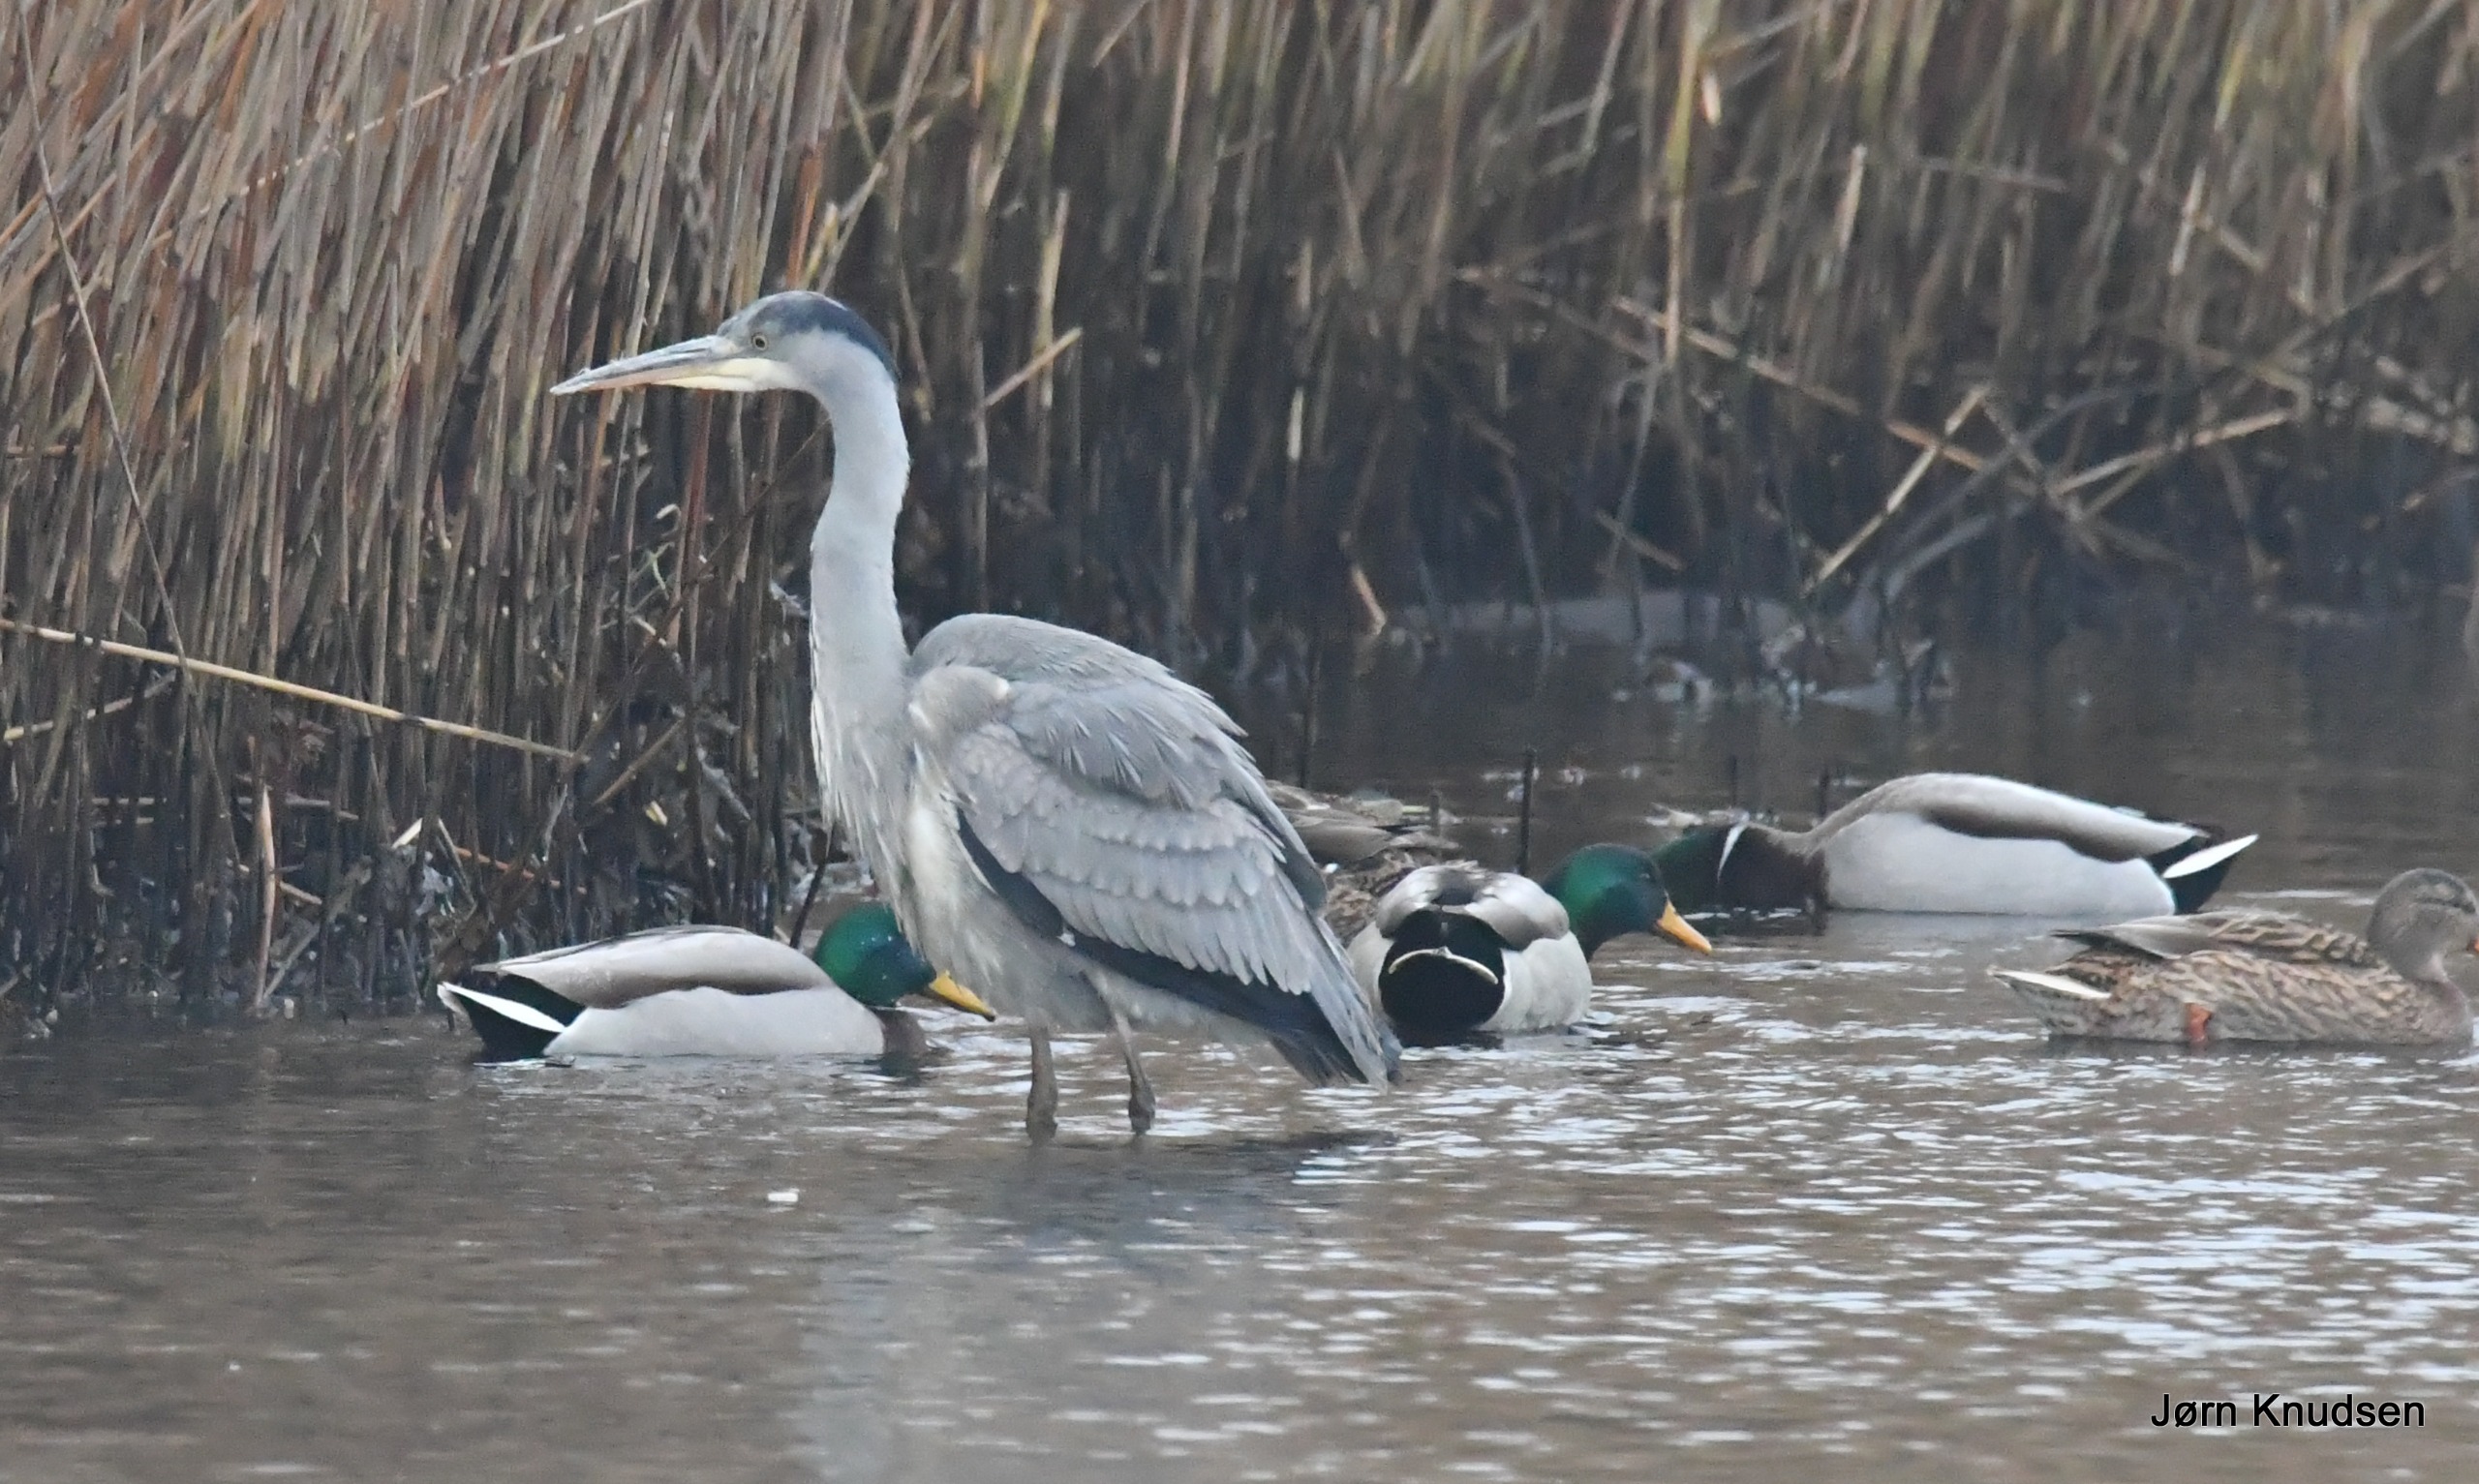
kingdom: Animalia
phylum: Chordata
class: Aves
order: Pelecaniformes
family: Ardeidae
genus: Ardea
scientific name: Ardea cinerea
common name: Fiskehejre
